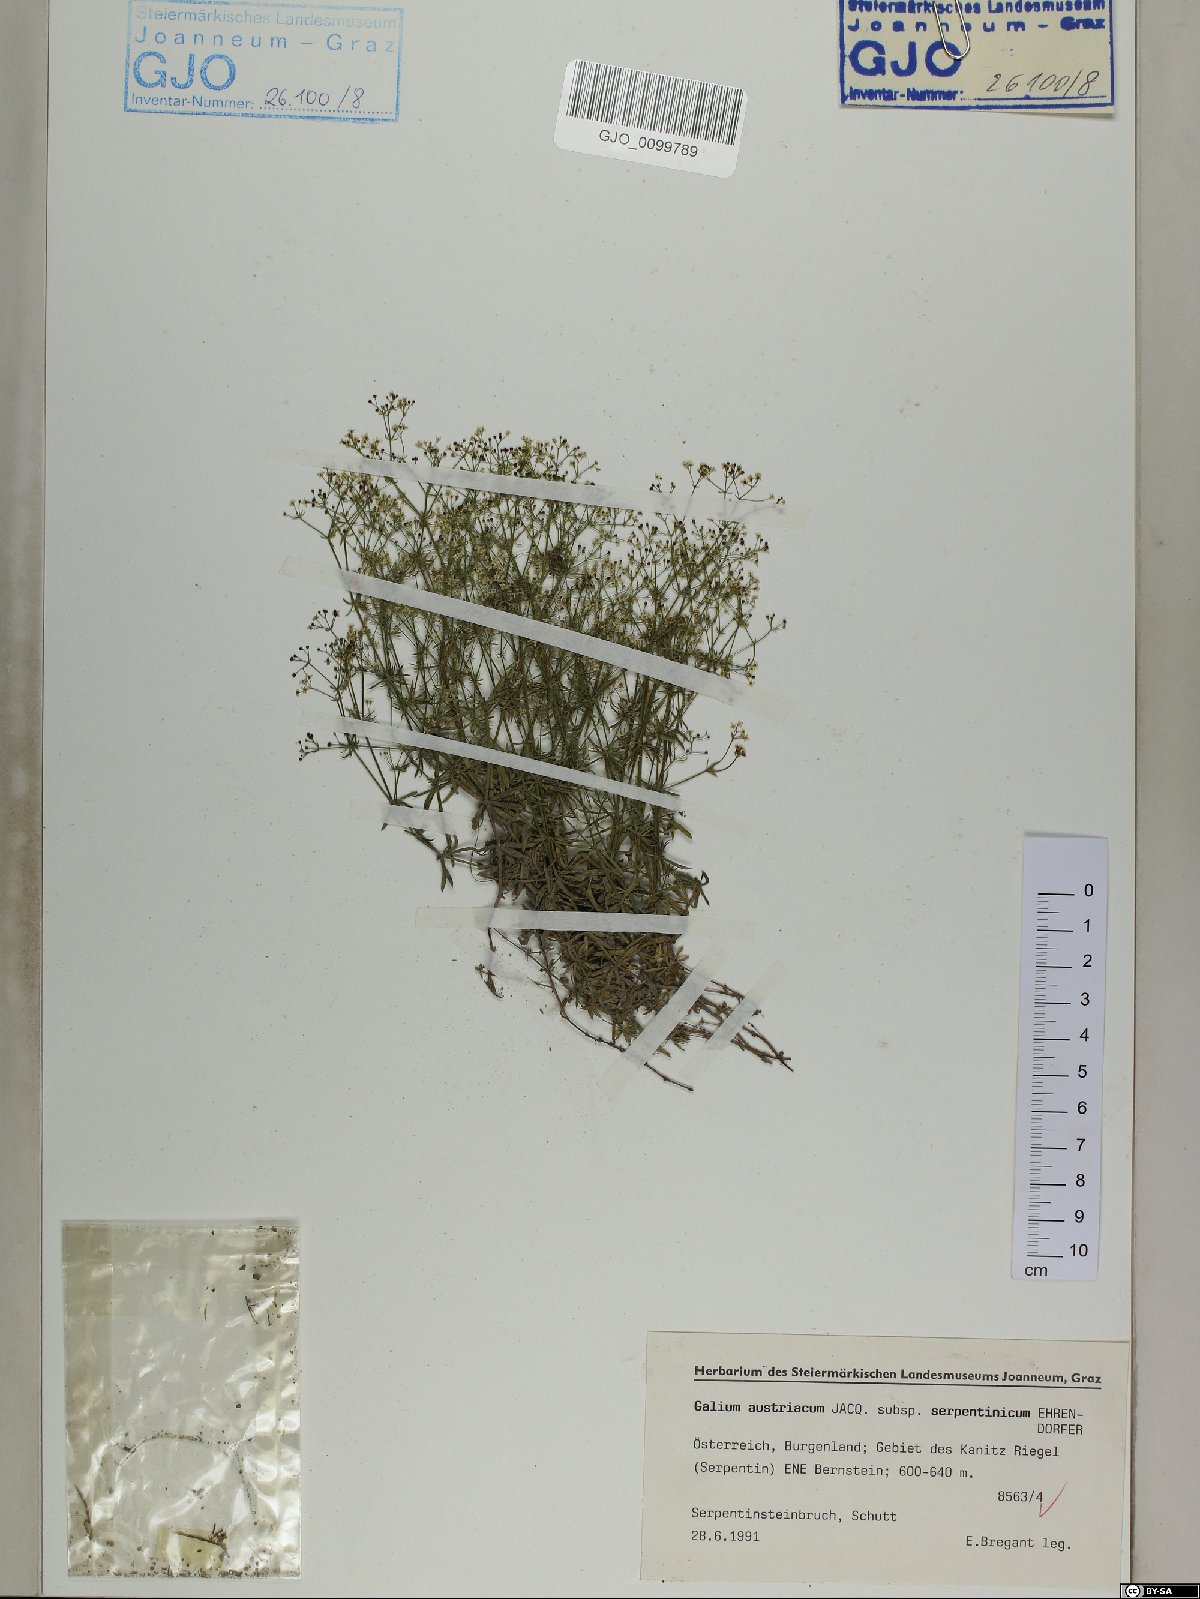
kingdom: Plantae
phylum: Tracheophyta
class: Magnoliopsida
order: Gentianales
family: Rubiaceae
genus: Galium
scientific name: Galium austriacum
